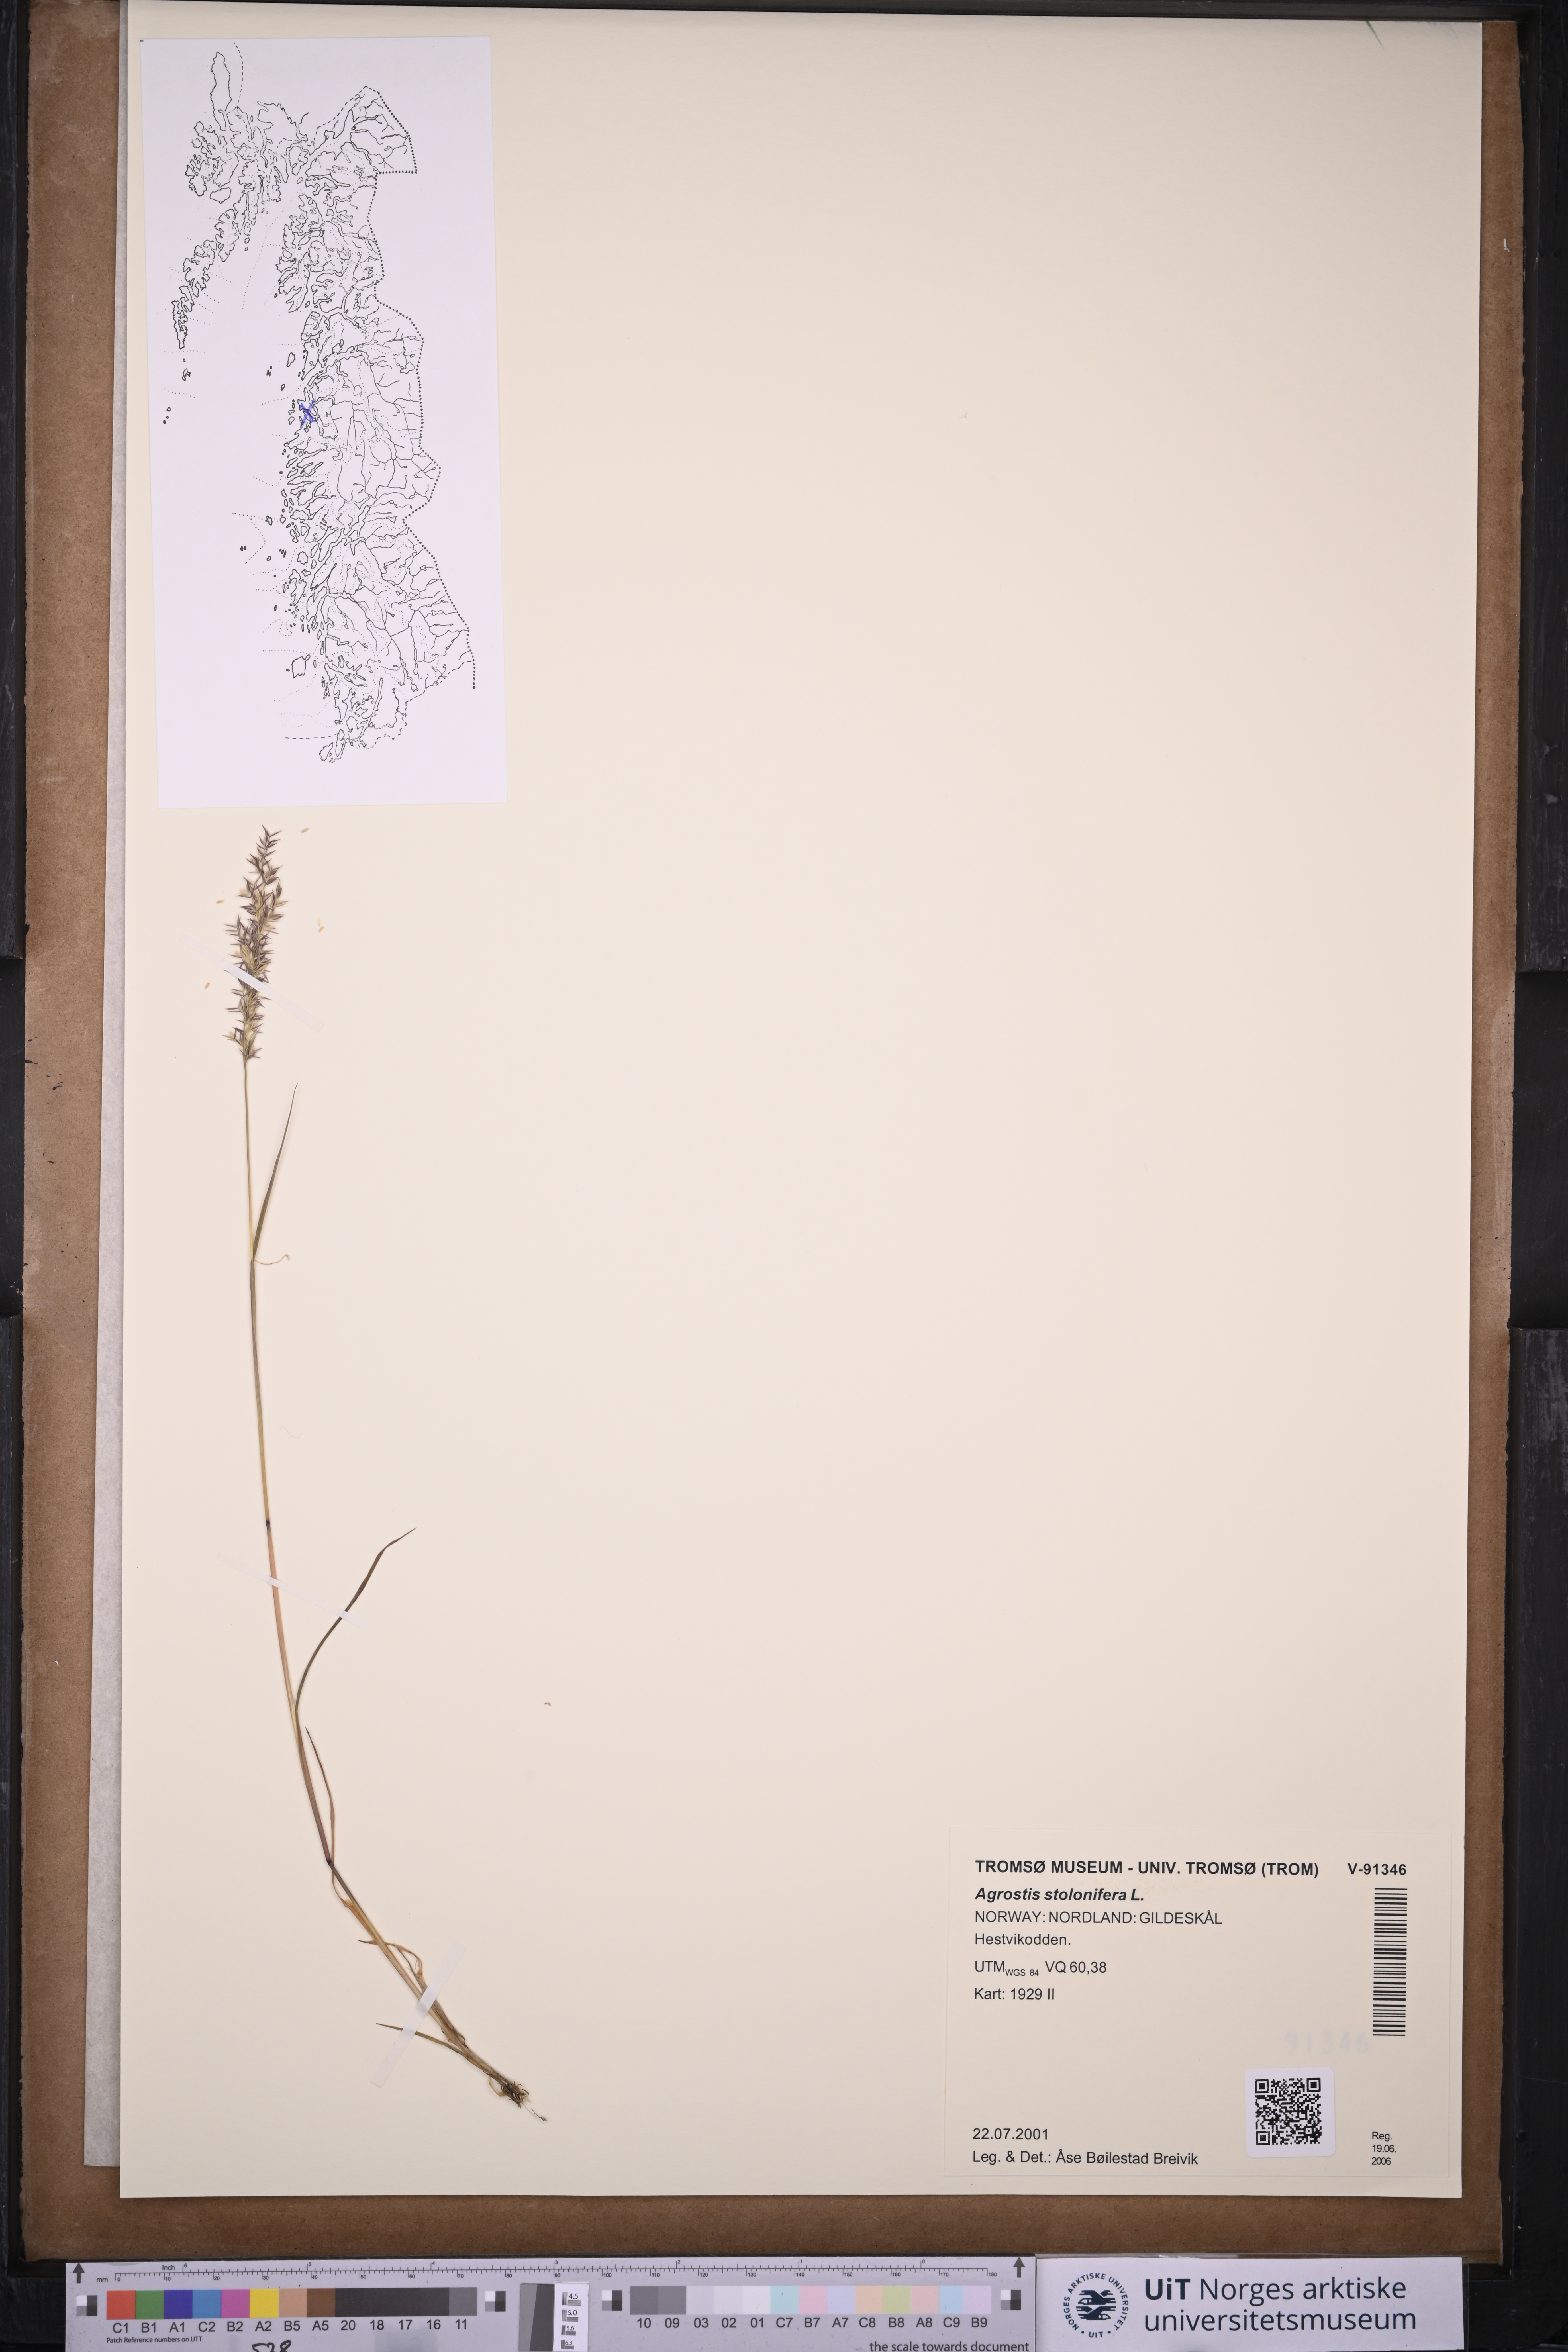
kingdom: Plantae
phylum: Tracheophyta
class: Liliopsida
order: Poales
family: Poaceae
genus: Agrostis
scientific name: Agrostis stolonifera
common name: Creeping bentgrass
